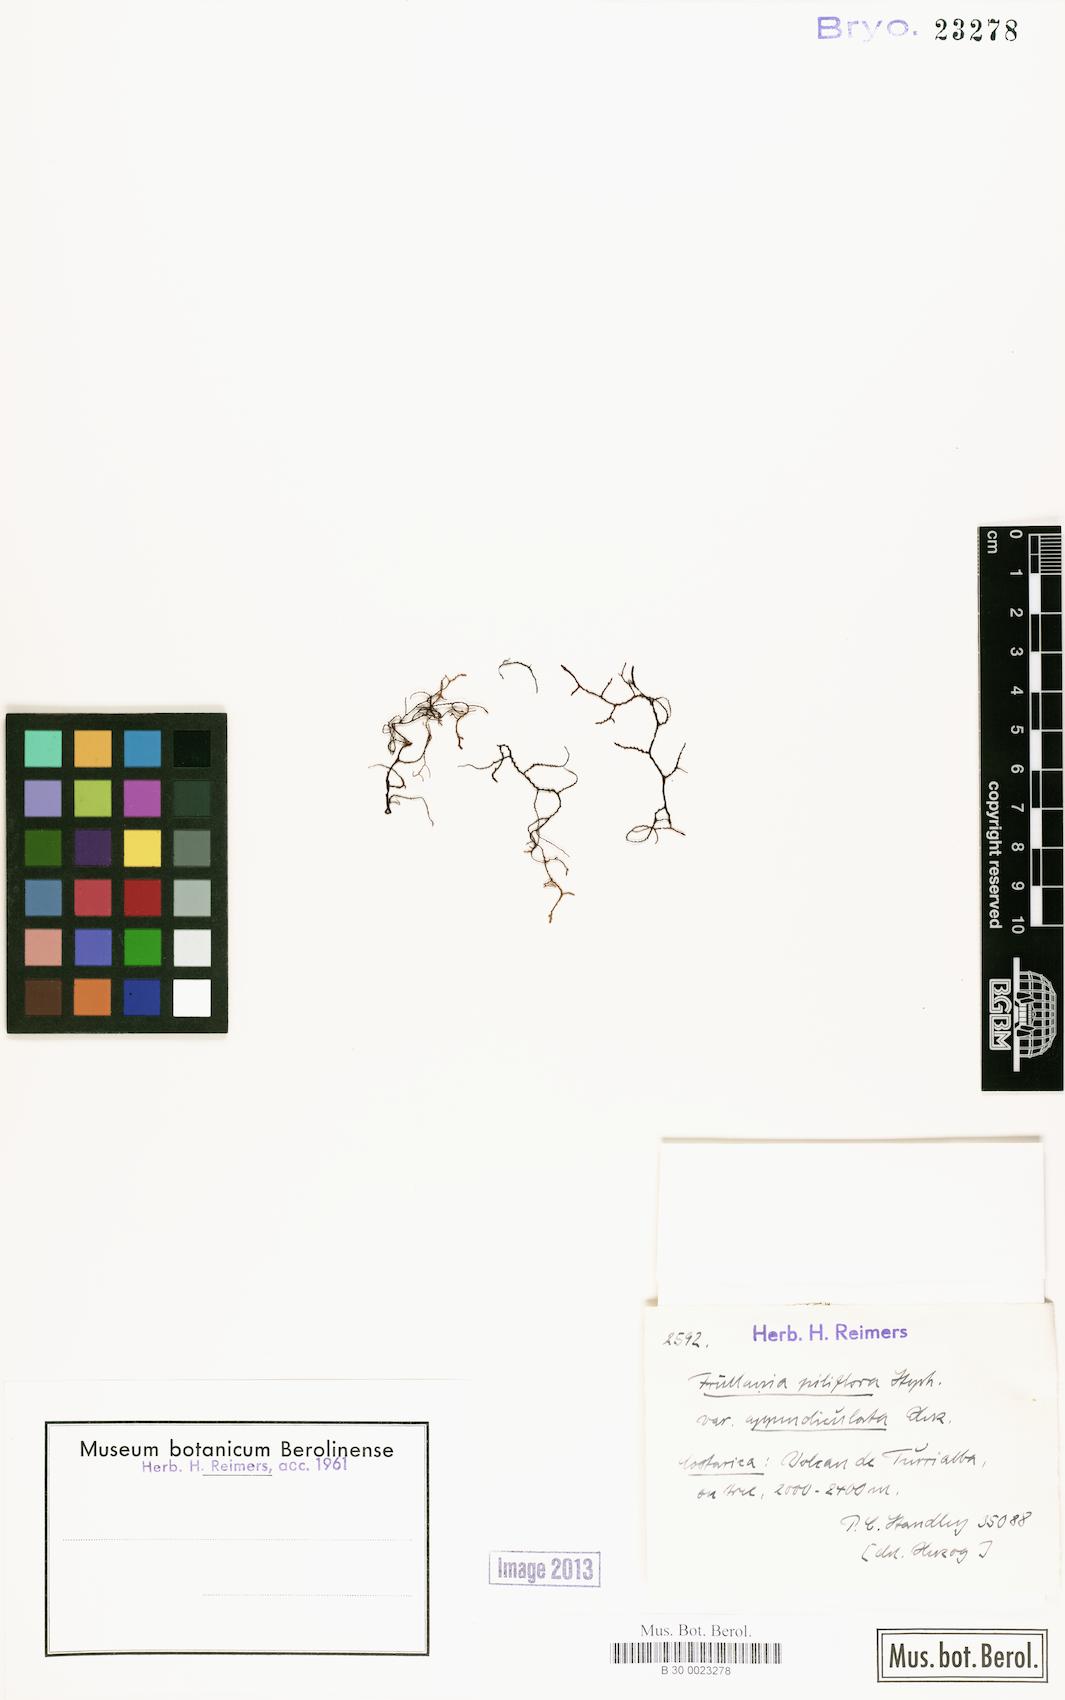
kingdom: Plantae
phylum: Marchantiophyta
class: Jungermanniopsida
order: Porellales
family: Frullaniaceae
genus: Frullania
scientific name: Frullania peruviana
